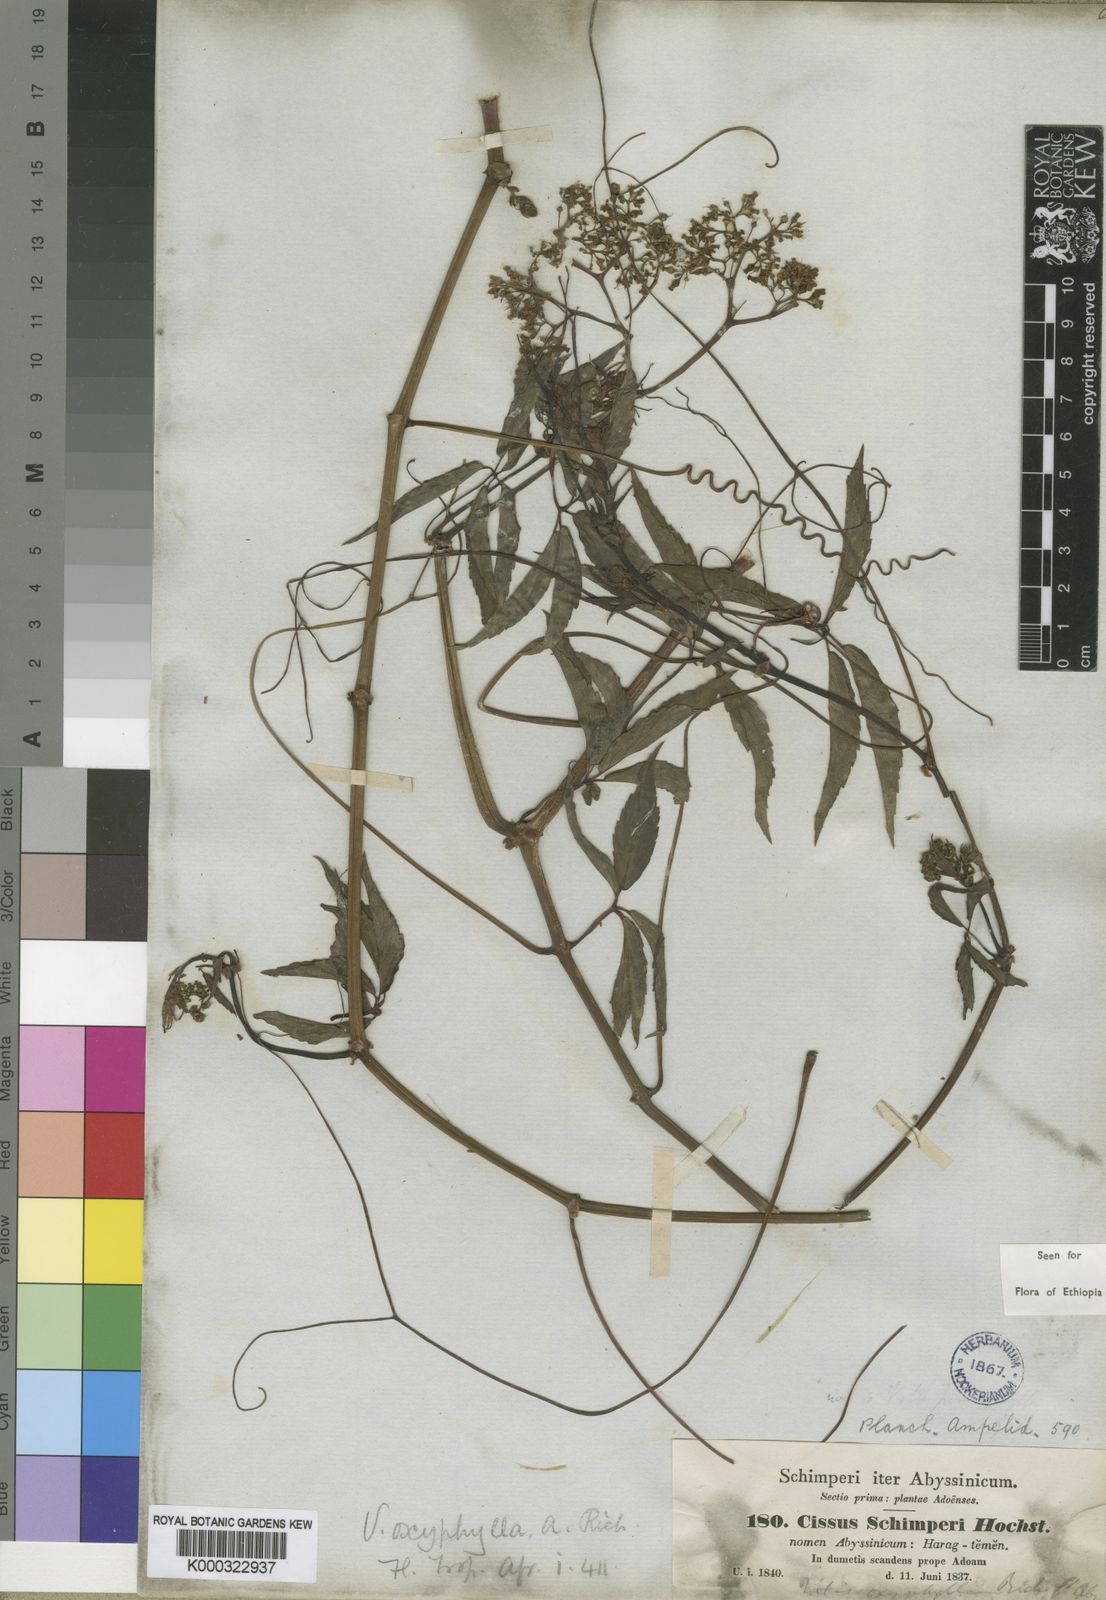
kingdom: Plantae
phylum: Tracheophyta
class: Magnoliopsida
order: Vitales
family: Vitaceae
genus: Cyphostemma
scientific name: Cyphostemma oxyphyllum
